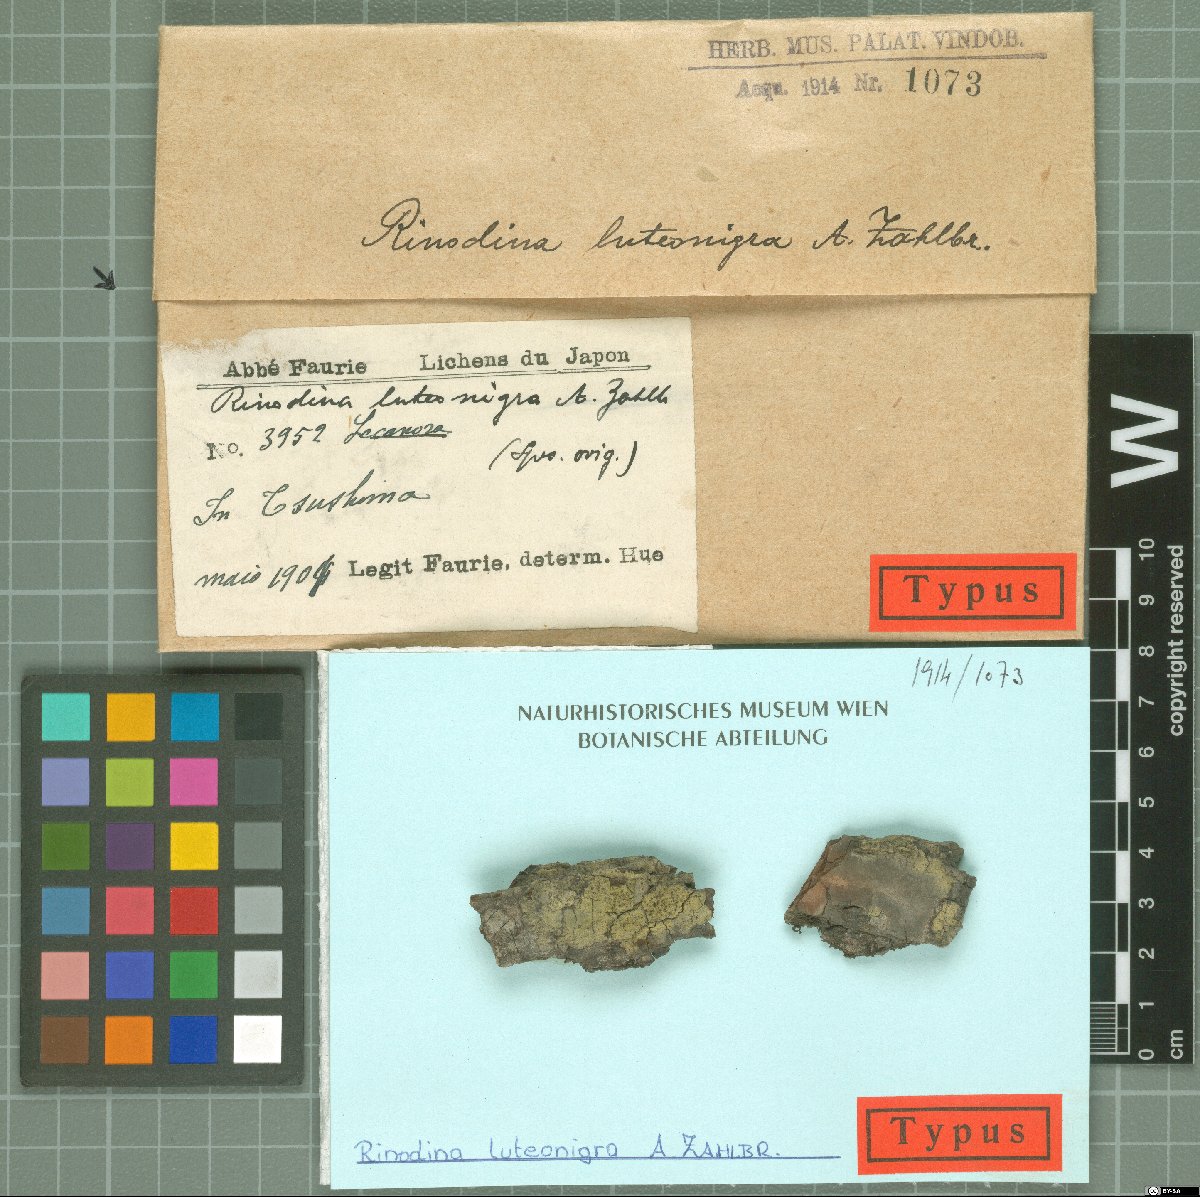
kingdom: Fungi
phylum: Ascomycota
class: Lecanoromycetes
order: Caliciales
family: Physciaceae
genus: Huriopsis
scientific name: Huriopsis luteonigra
